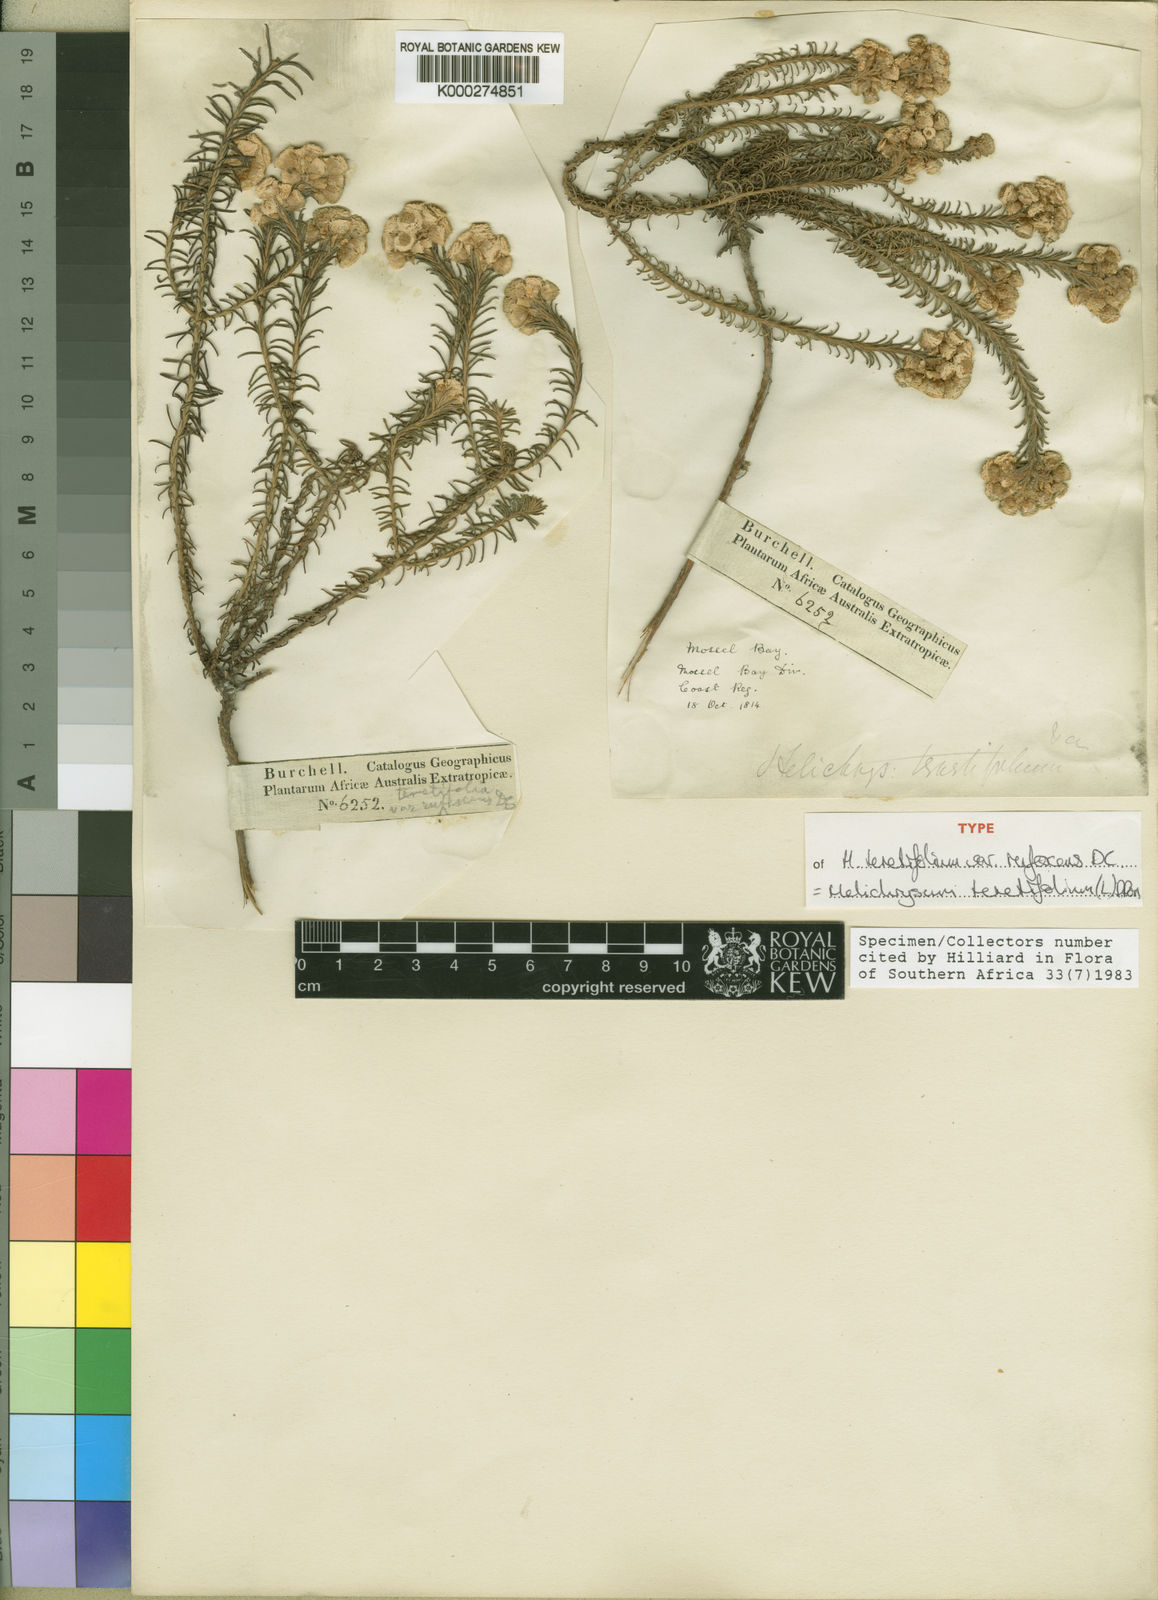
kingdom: Plantae
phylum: Tracheophyta
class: Magnoliopsida
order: Asterales
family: Asteraceae
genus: Helichrysum
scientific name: Helichrysum
